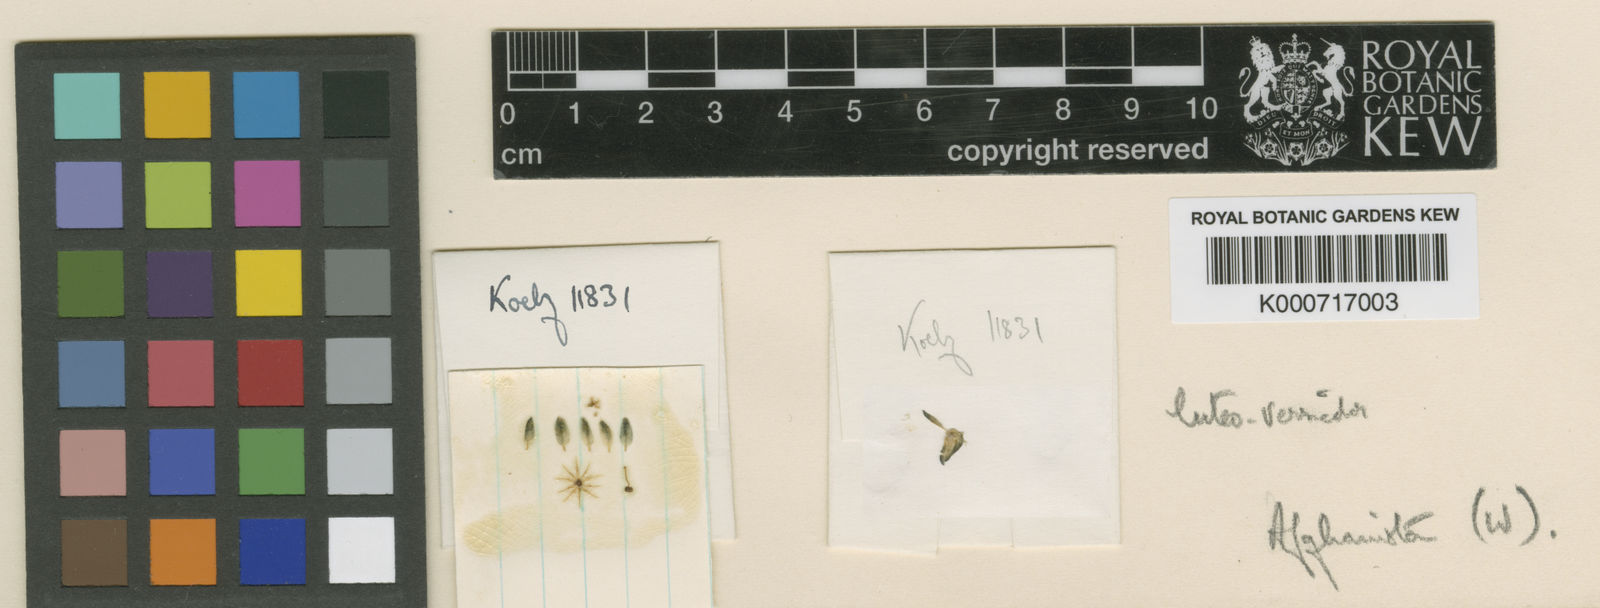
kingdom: Plantae
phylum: Tracheophyta
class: Magnoliopsida
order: Sapindales
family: Rutaceae
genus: Haplophyllum
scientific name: Haplophyllum luteoversicolor
